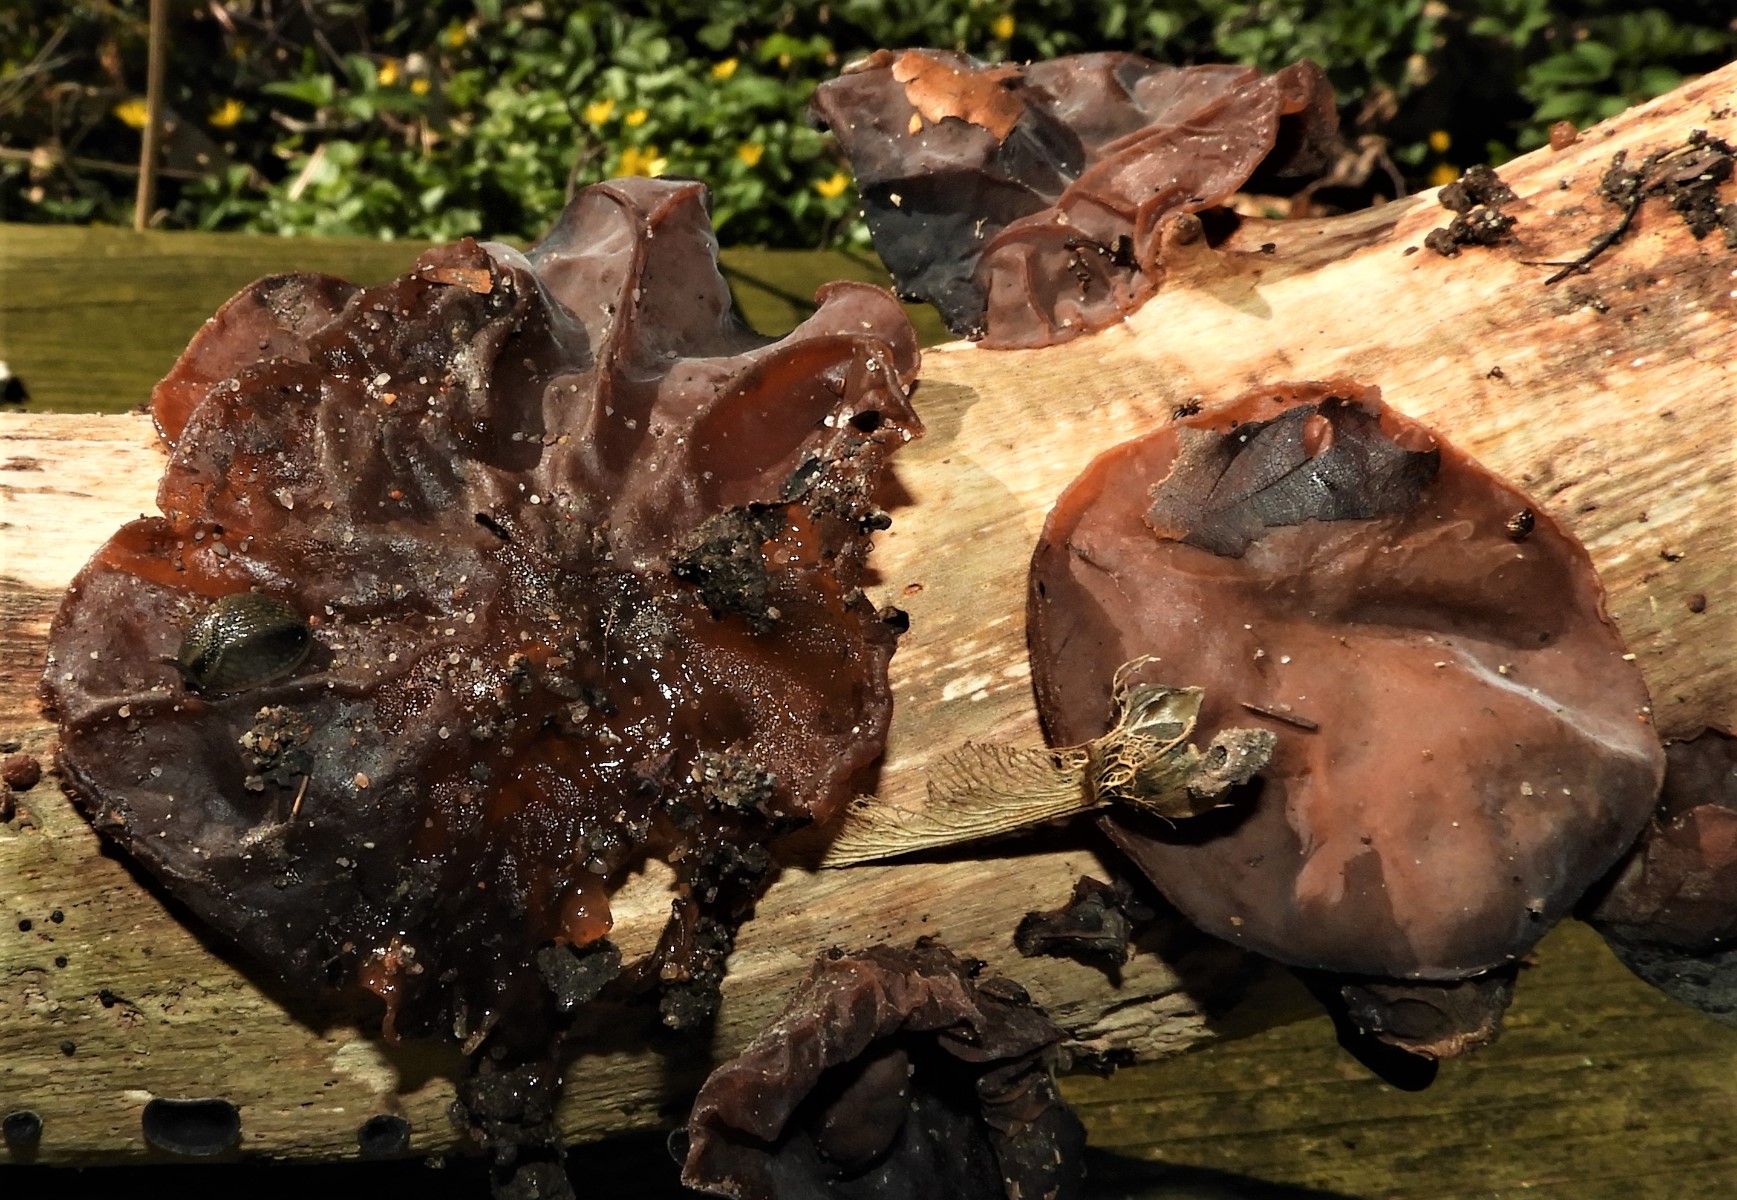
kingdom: Fungi
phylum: Basidiomycota
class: Agaricomycetes
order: Auriculariales
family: Auriculariaceae
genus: Auricularia
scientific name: Auricularia auricula-judae
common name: almindelig judasøre
